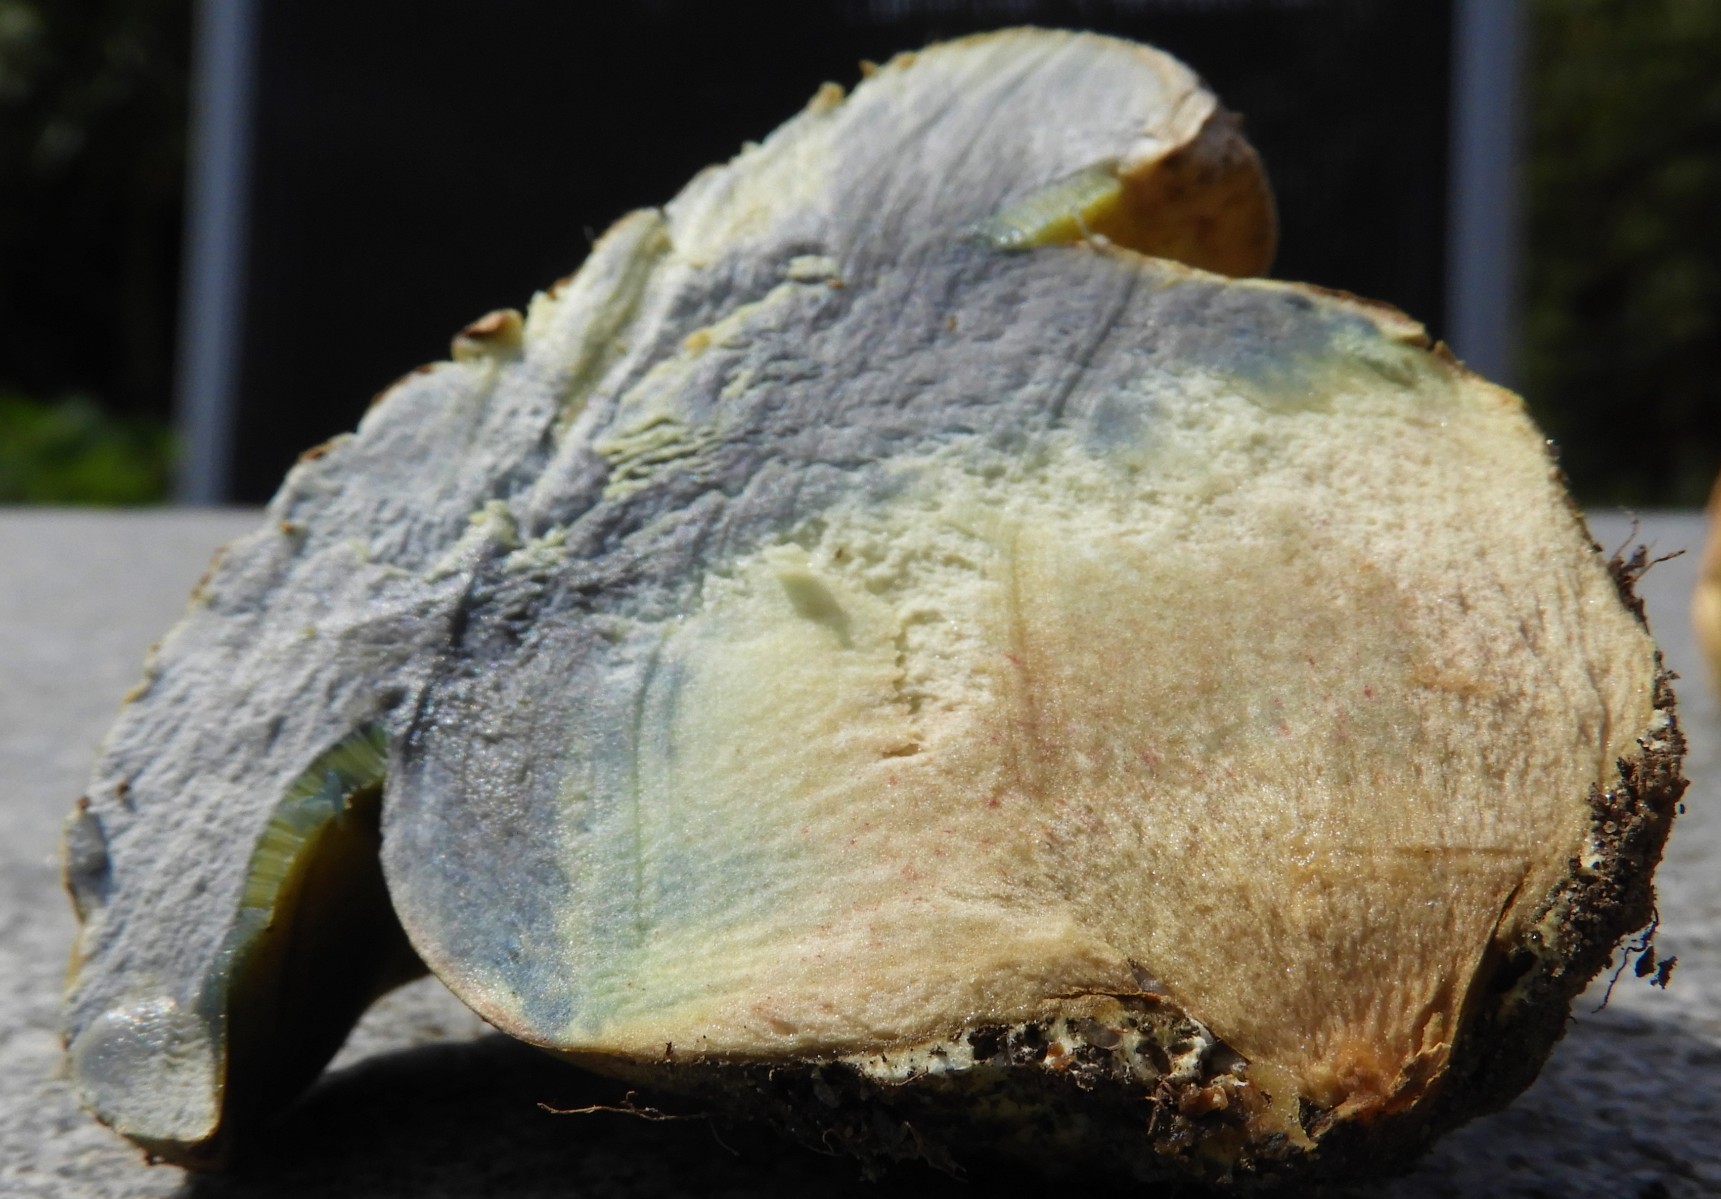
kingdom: Fungi
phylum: Basidiomycota
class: Agaricomycetes
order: Boletales
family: Boletaceae
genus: Caloboletus
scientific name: Caloboletus radicans
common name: rod-rørhat
